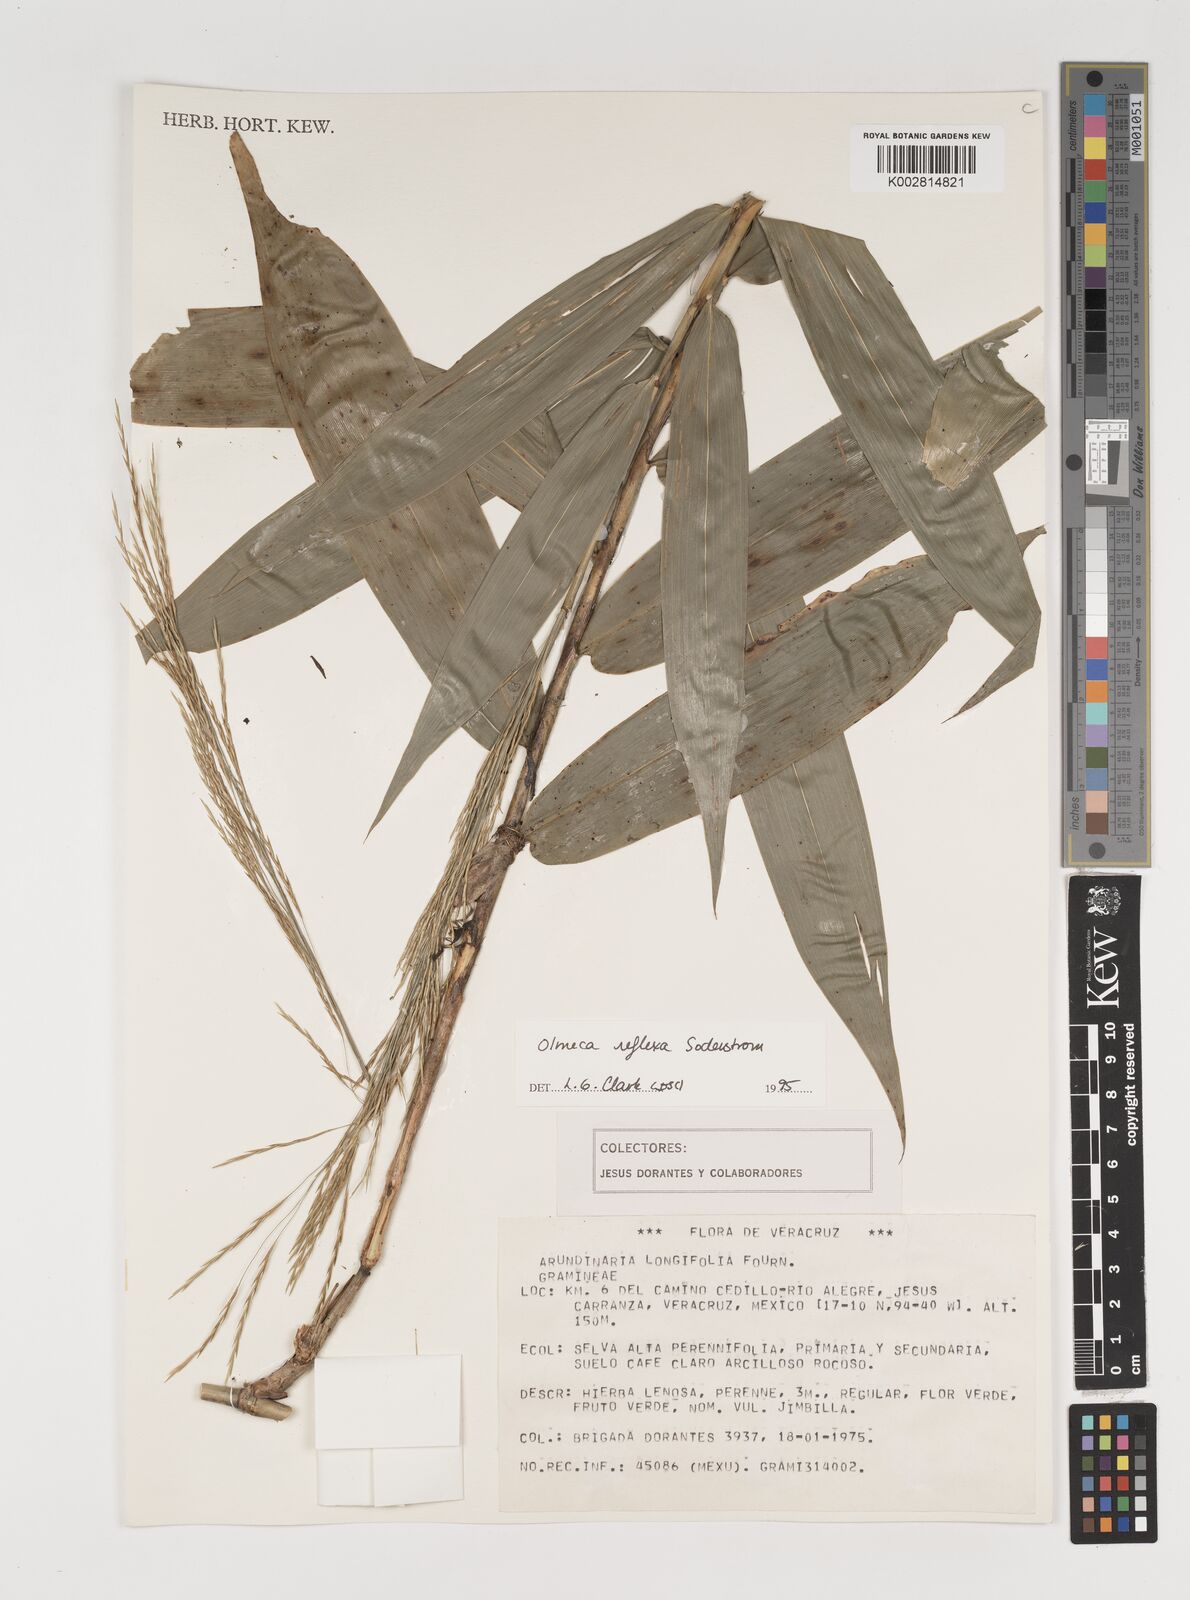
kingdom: Plantae
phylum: Tracheophyta
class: Liliopsida
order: Poales
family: Poaceae
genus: Olmeca
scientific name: Olmeca reflexa
